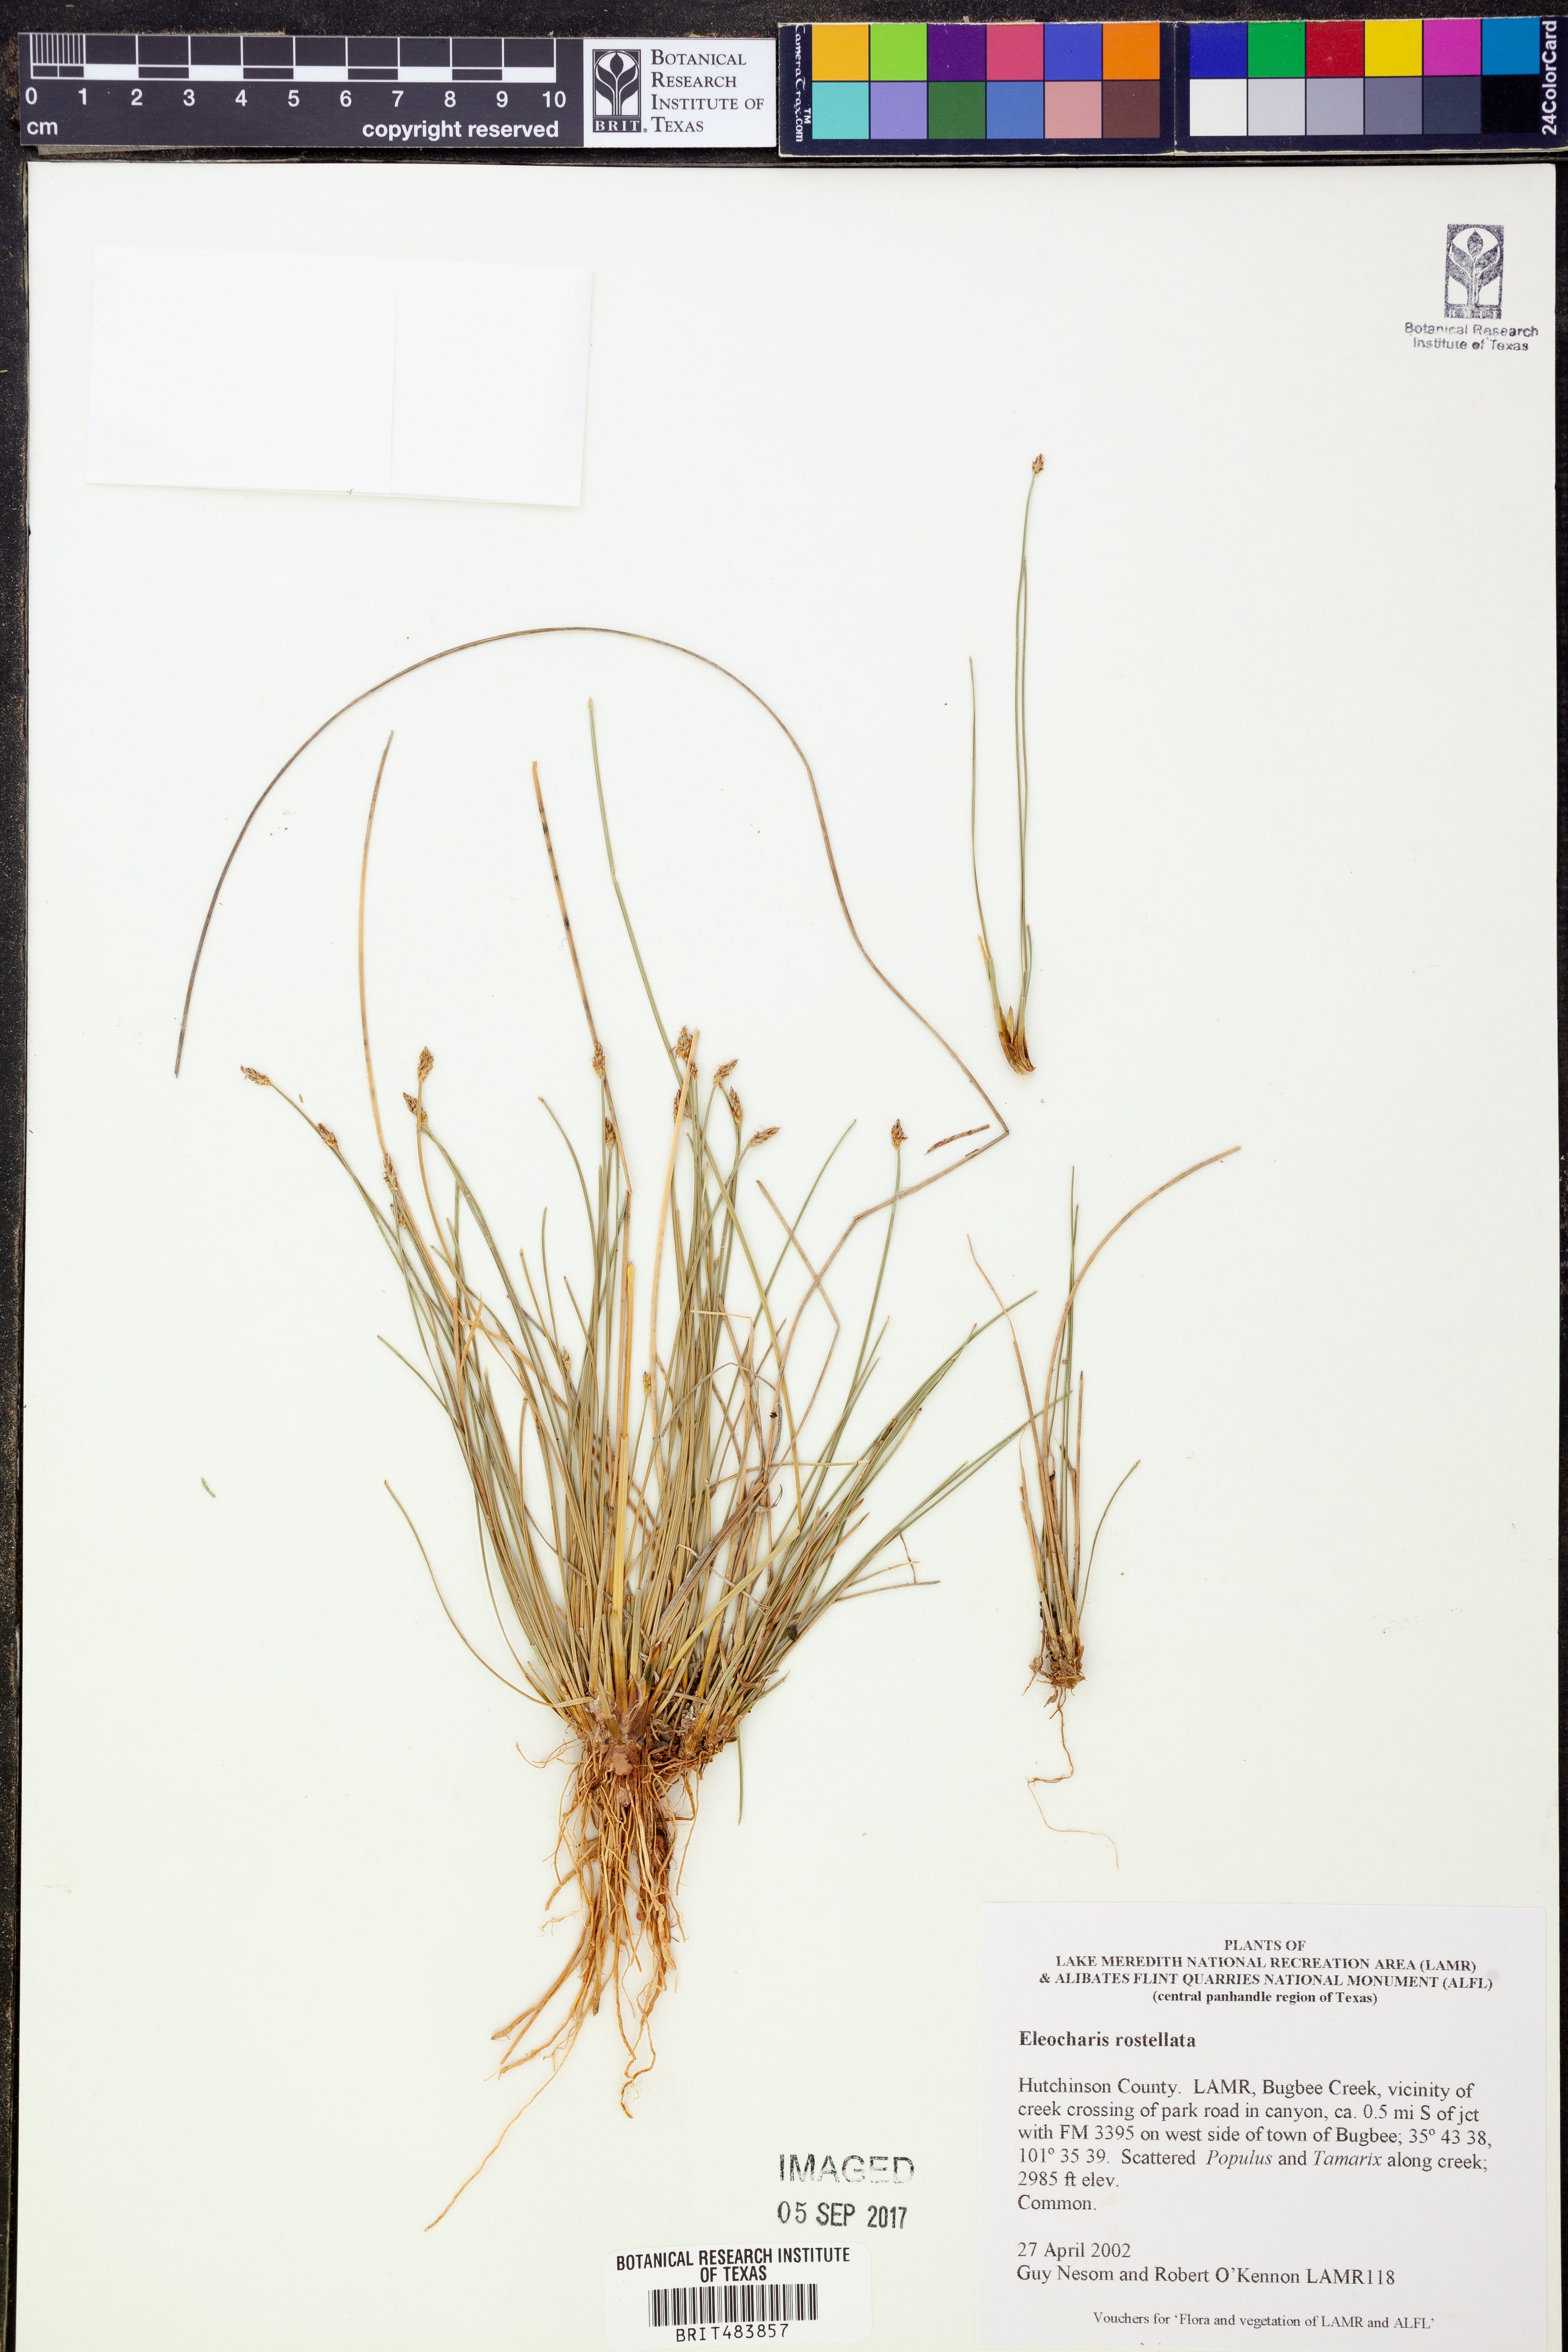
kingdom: Plantae
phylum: Tracheophyta
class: Liliopsida
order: Poales
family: Cyperaceae
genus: Eleocharis
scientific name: Eleocharis rostellata
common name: Walking sedge
